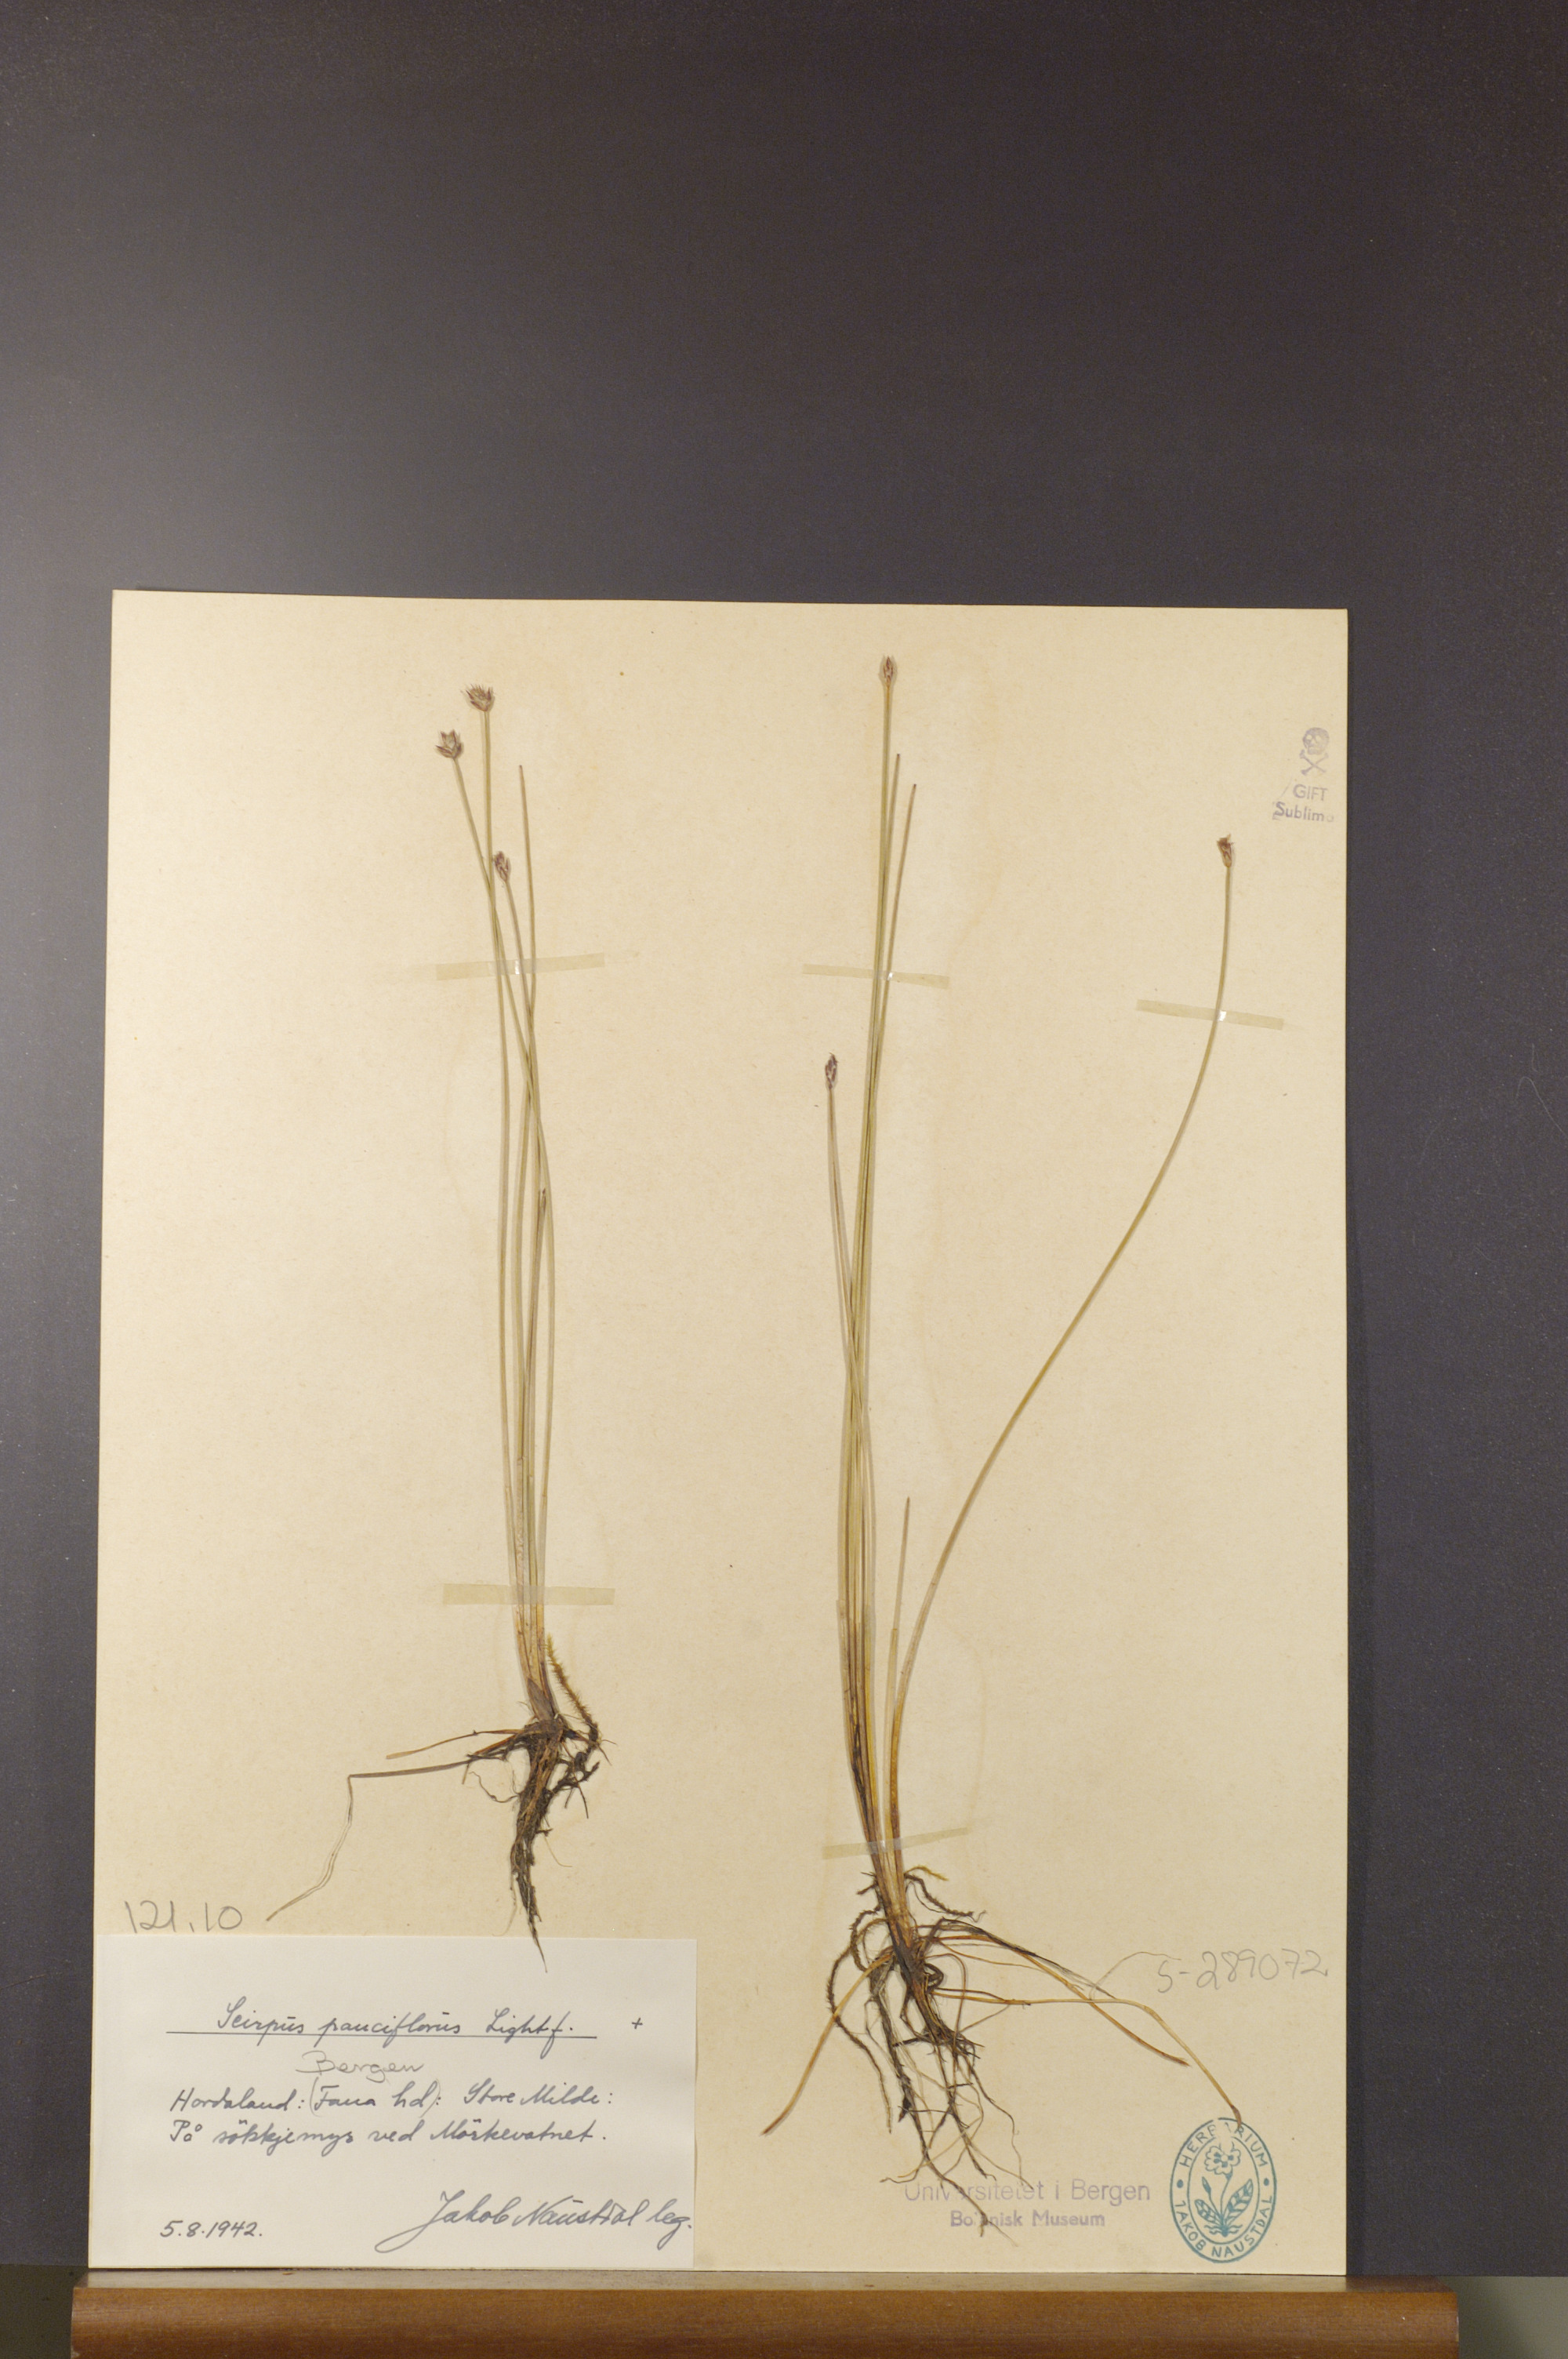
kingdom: Plantae
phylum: Tracheophyta
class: Liliopsida
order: Poales
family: Cyperaceae
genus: Eleocharis
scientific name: Eleocharis quinqueflora
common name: Few-flowered spike-rush
